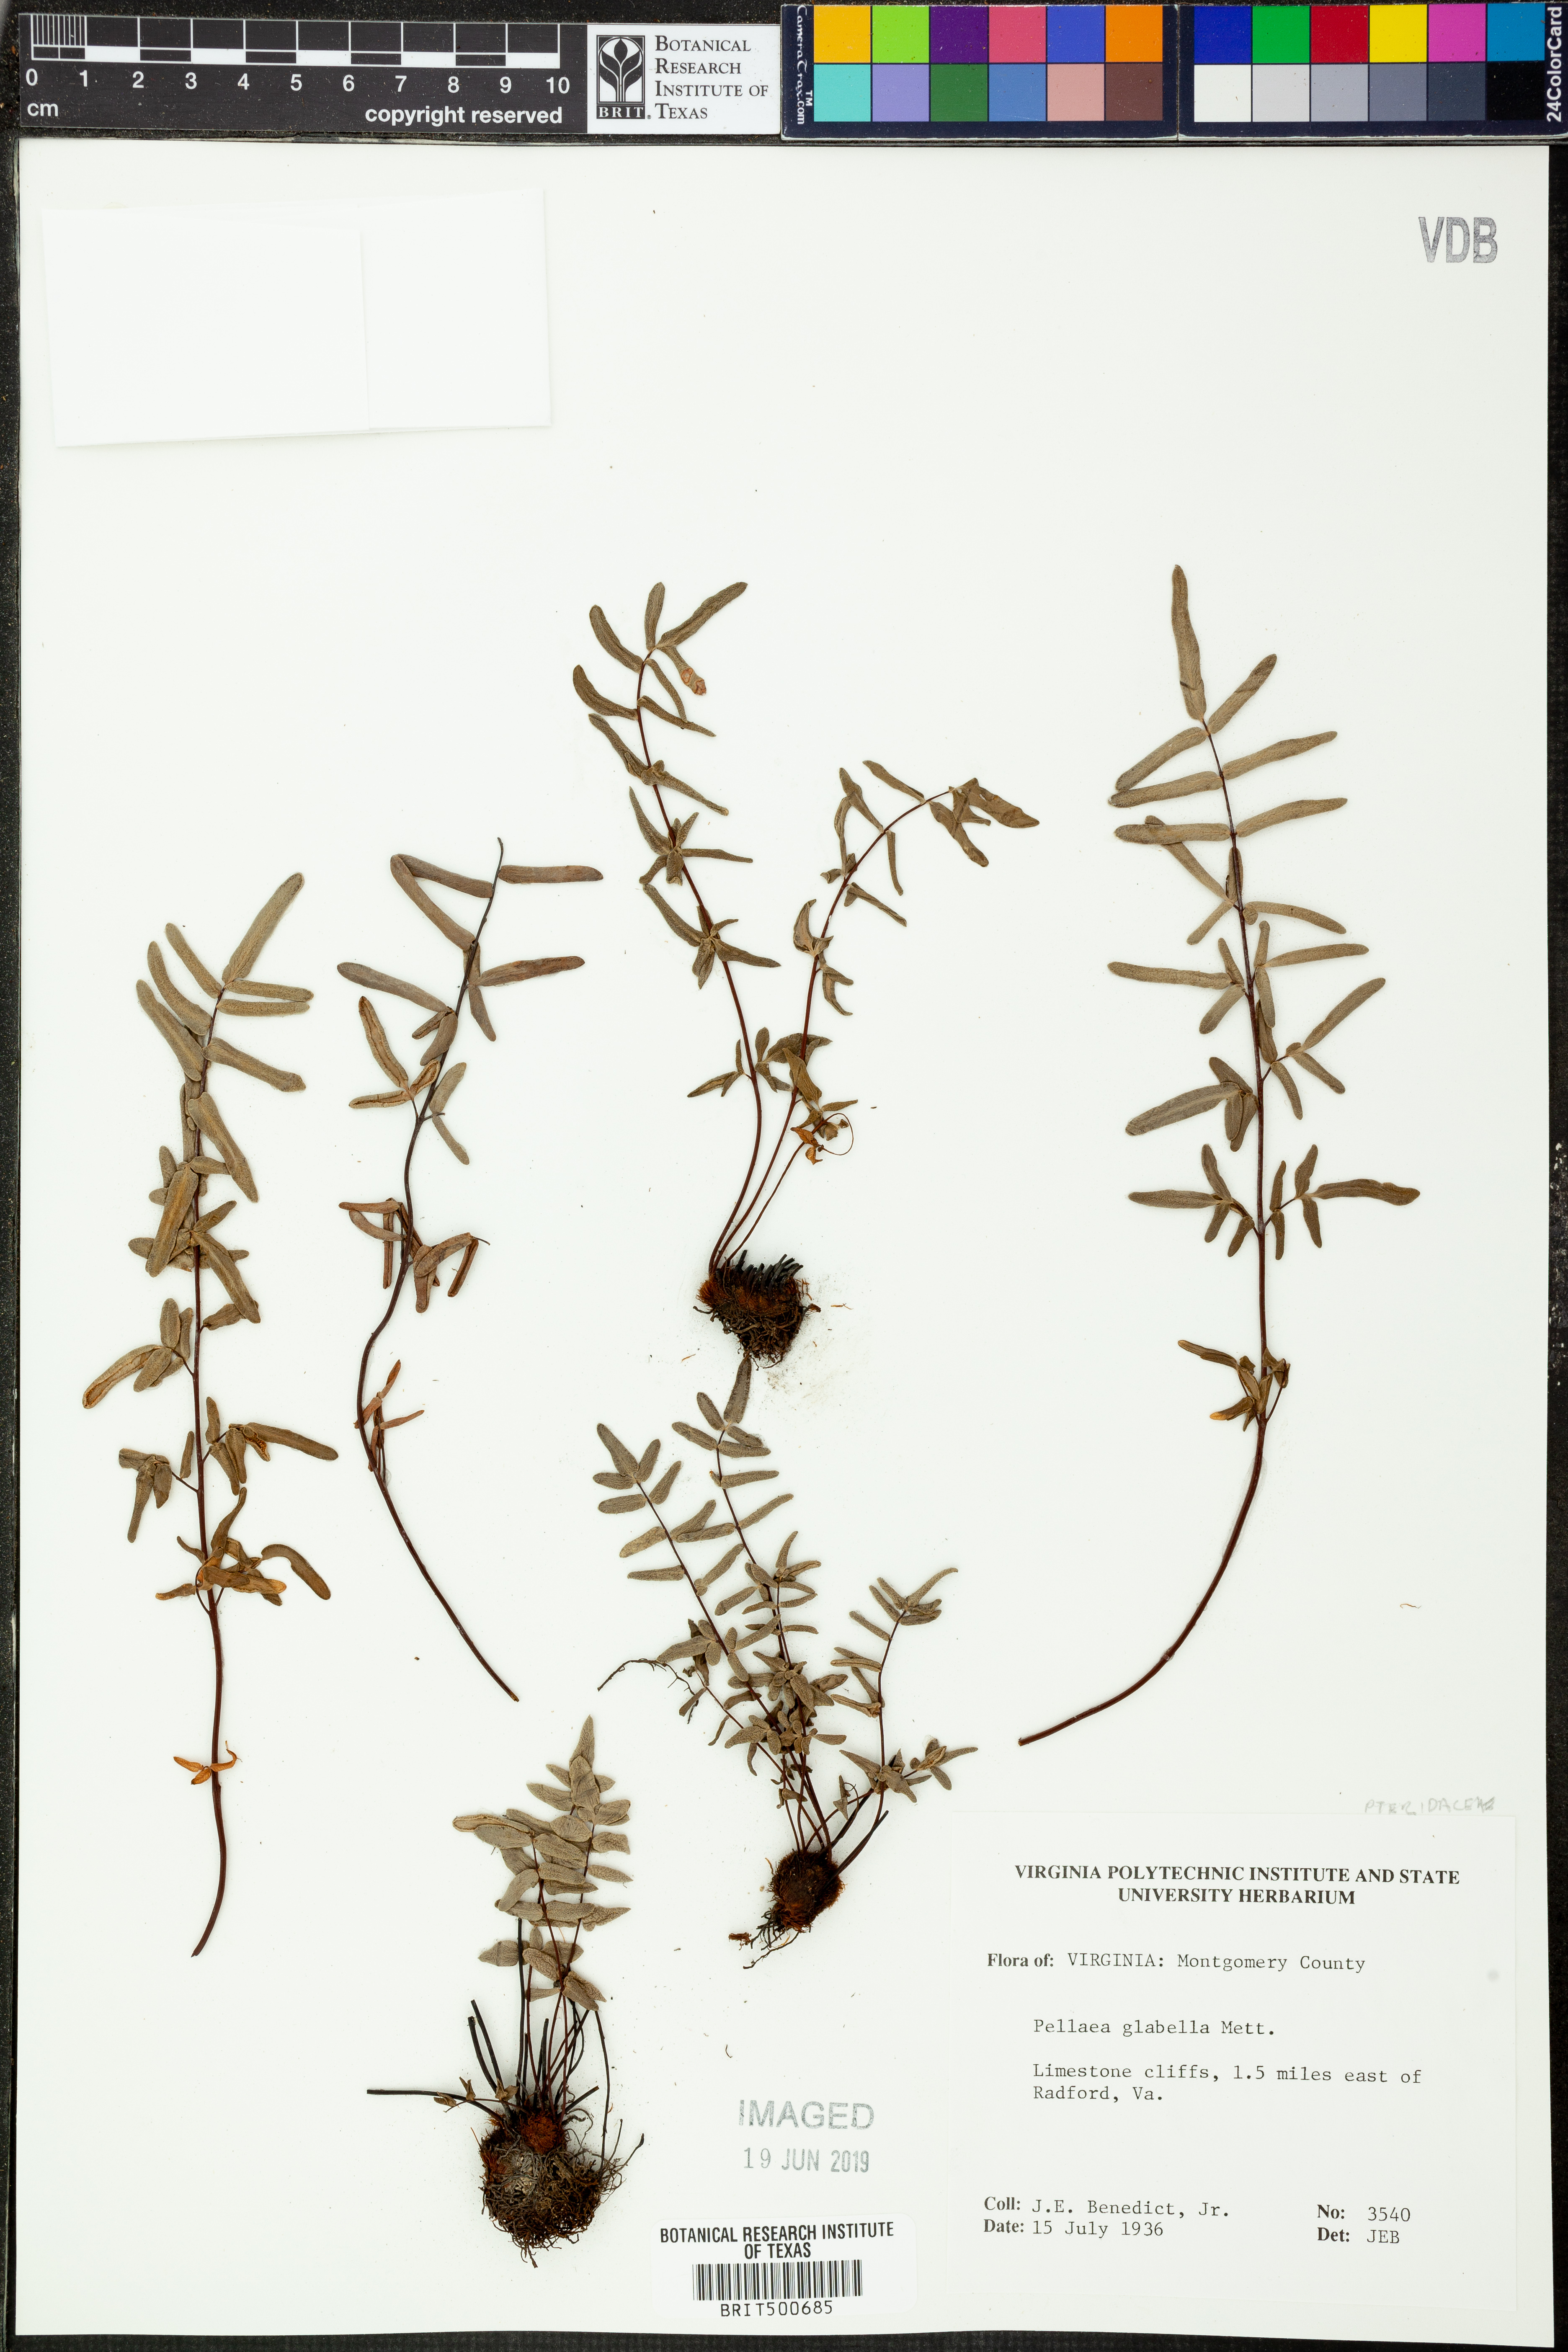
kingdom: Plantae
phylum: Tracheophyta
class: Polypodiopsida
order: Polypodiales
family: Pteridaceae
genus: Pellaea
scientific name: Pellaea glabella
